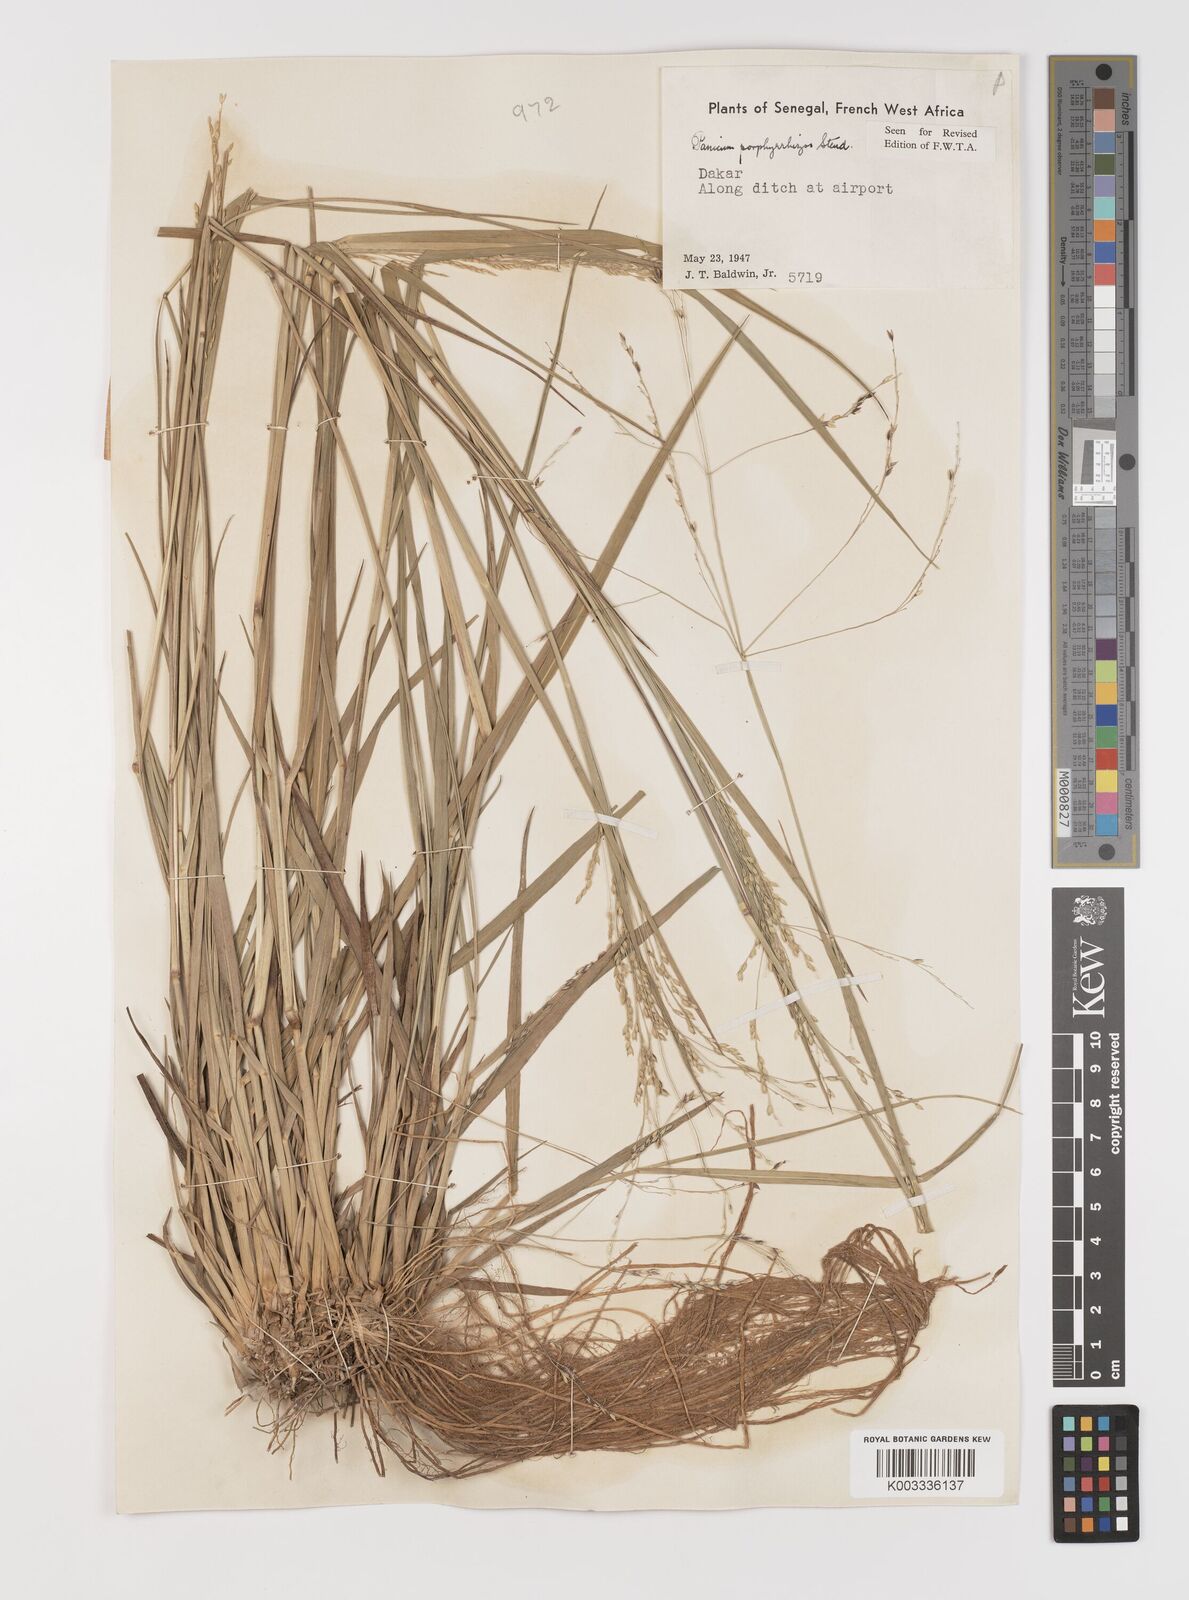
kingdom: Plantae
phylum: Tracheophyta
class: Liliopsida
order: Poales
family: Poaceae
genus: Panicum
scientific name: Panicum porphyrrhizos
